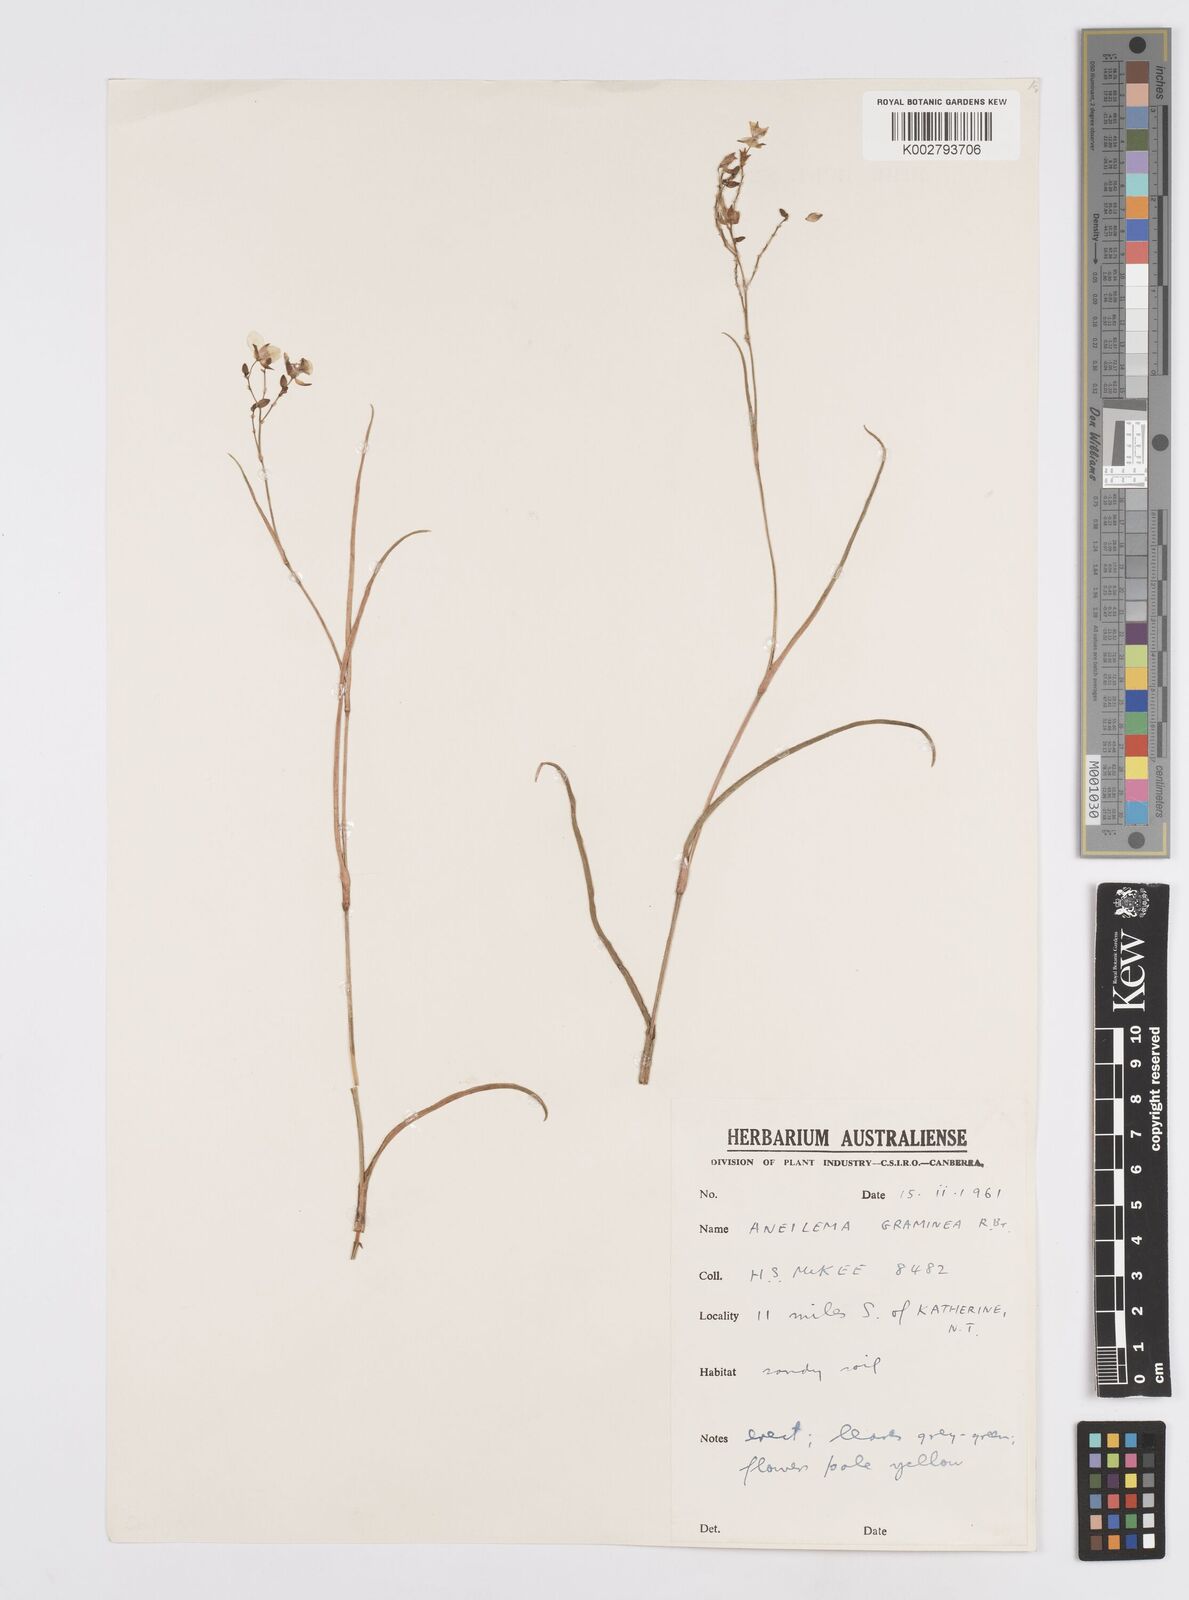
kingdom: Plantae
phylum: Tracheophyta
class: Liliopsida
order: Commelinales
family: Commelinaceae
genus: Murdannia
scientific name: Murdannia graminea
